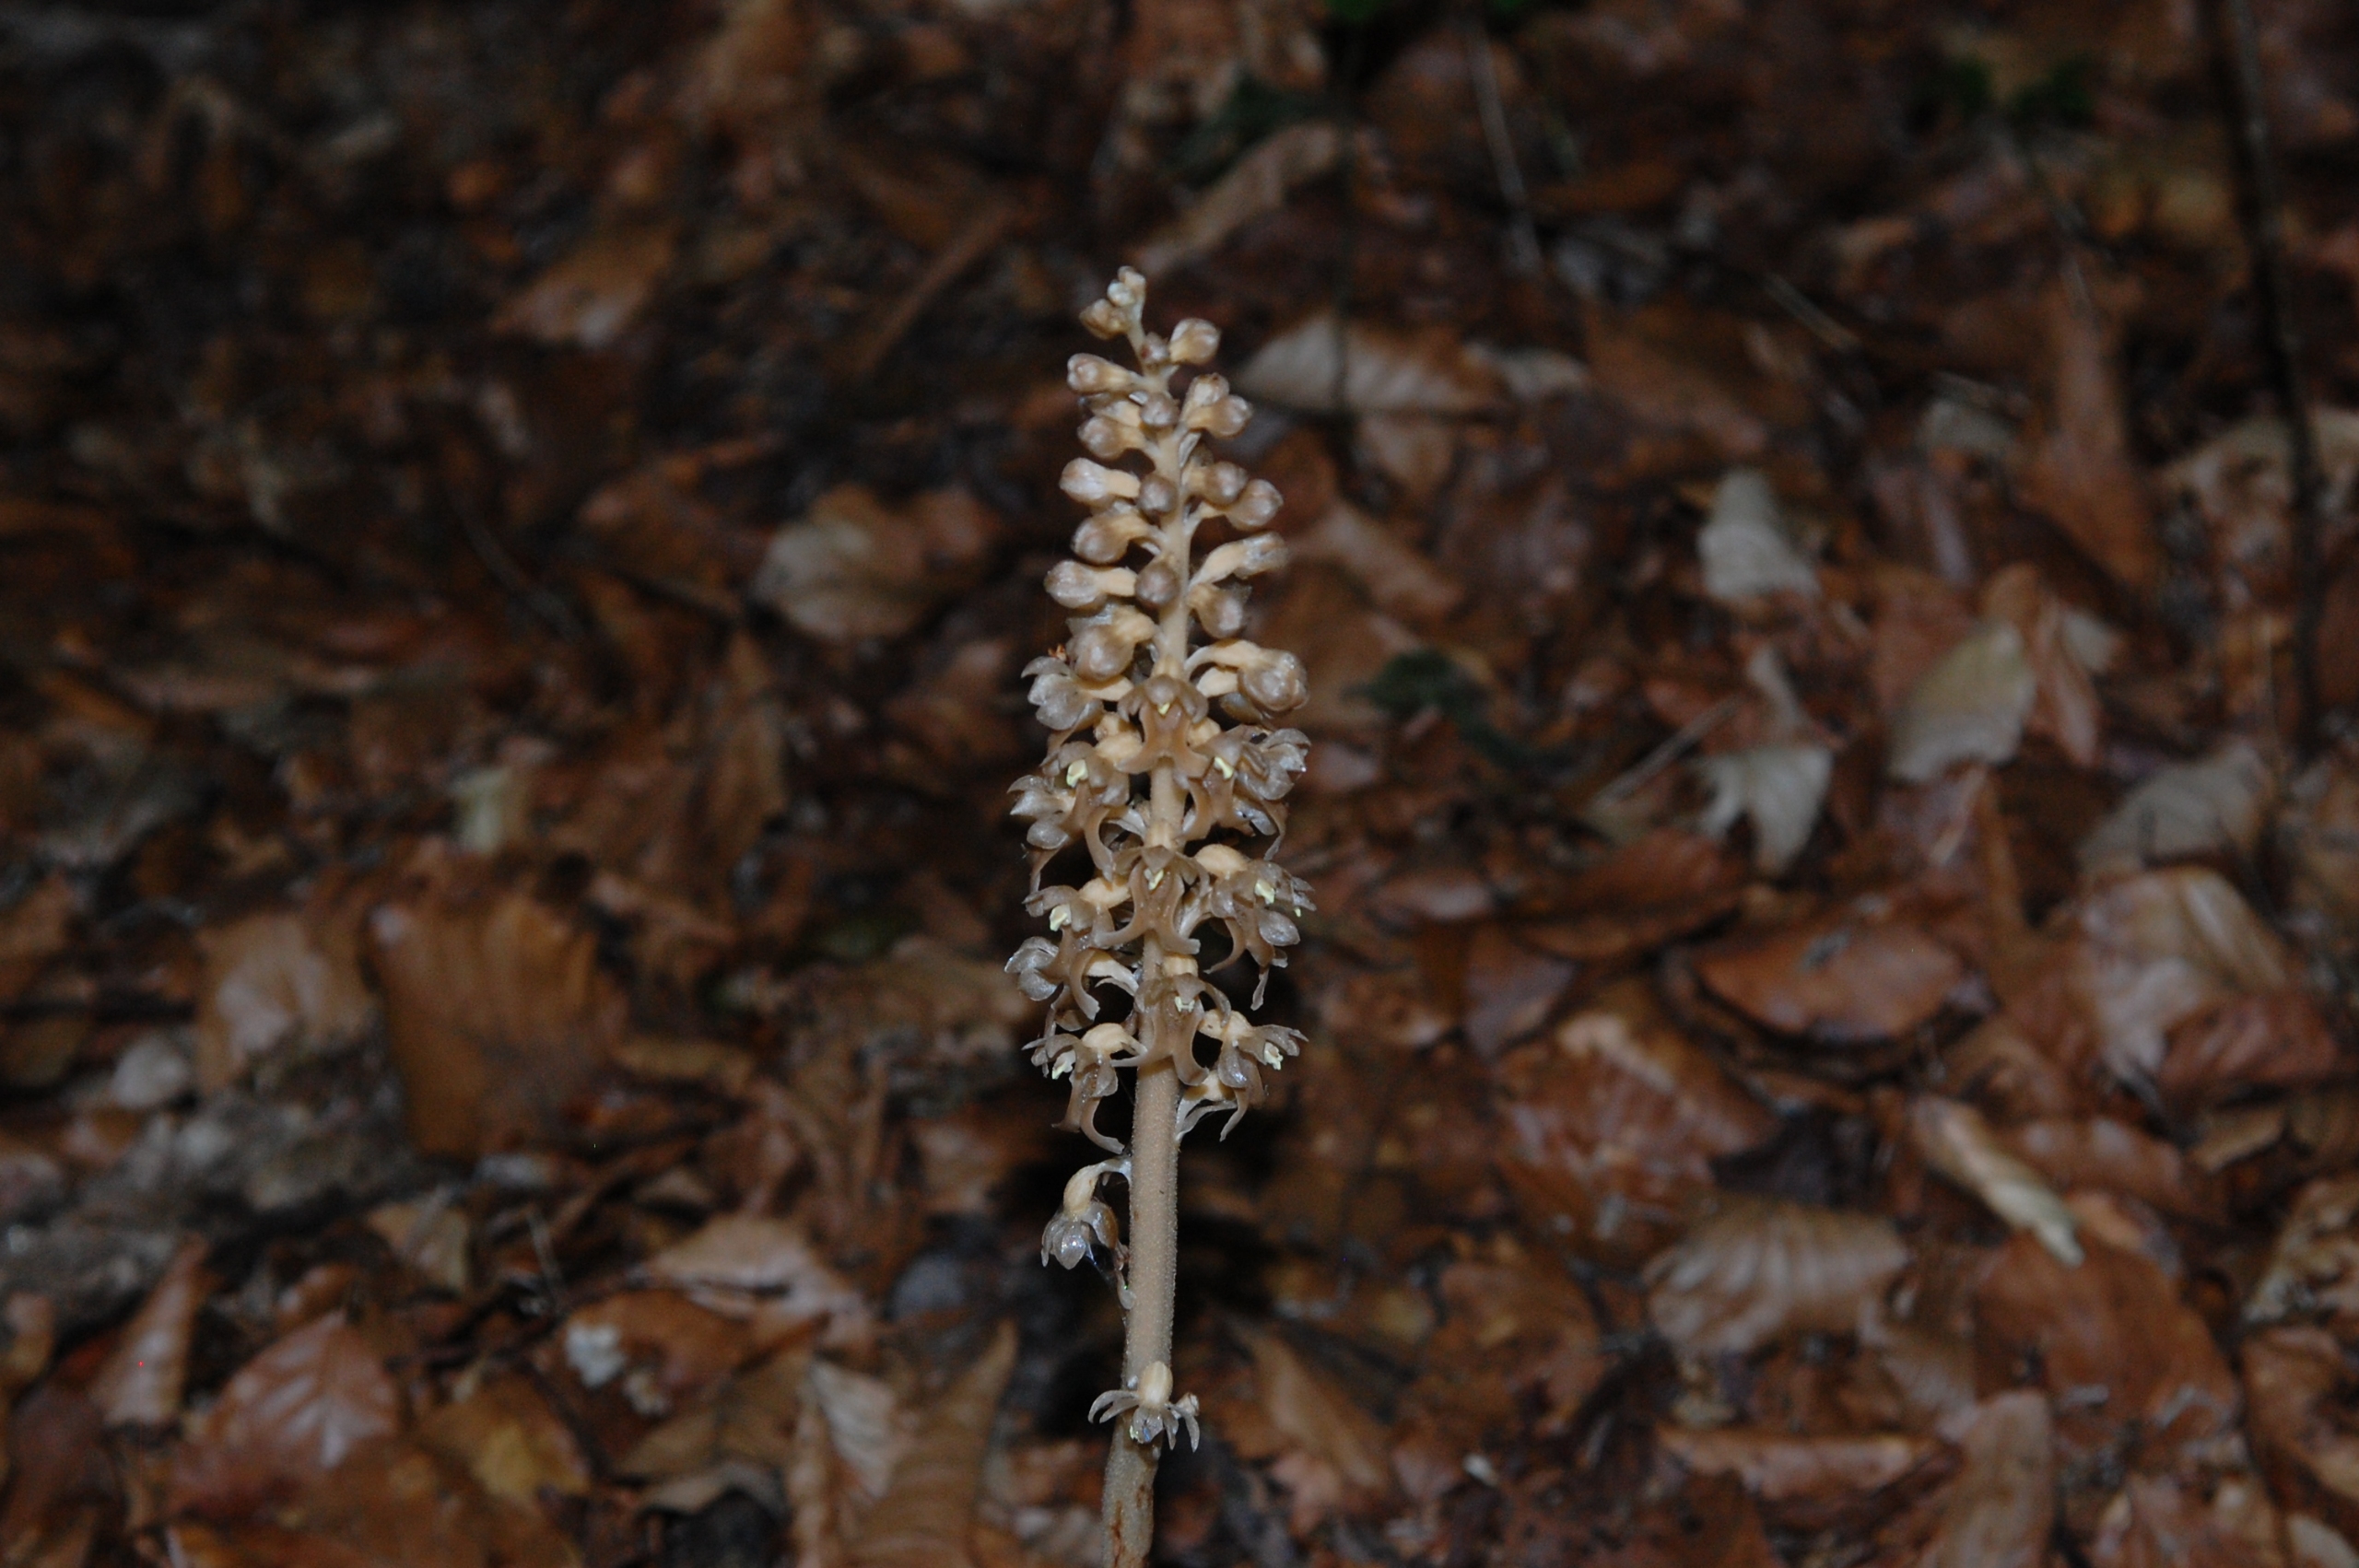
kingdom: Plantae
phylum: Tracheophyta
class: Liliopsida
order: Asparagales
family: Orchidaceae
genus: Neottia
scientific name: Neottia nidus-avis
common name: Rederod
